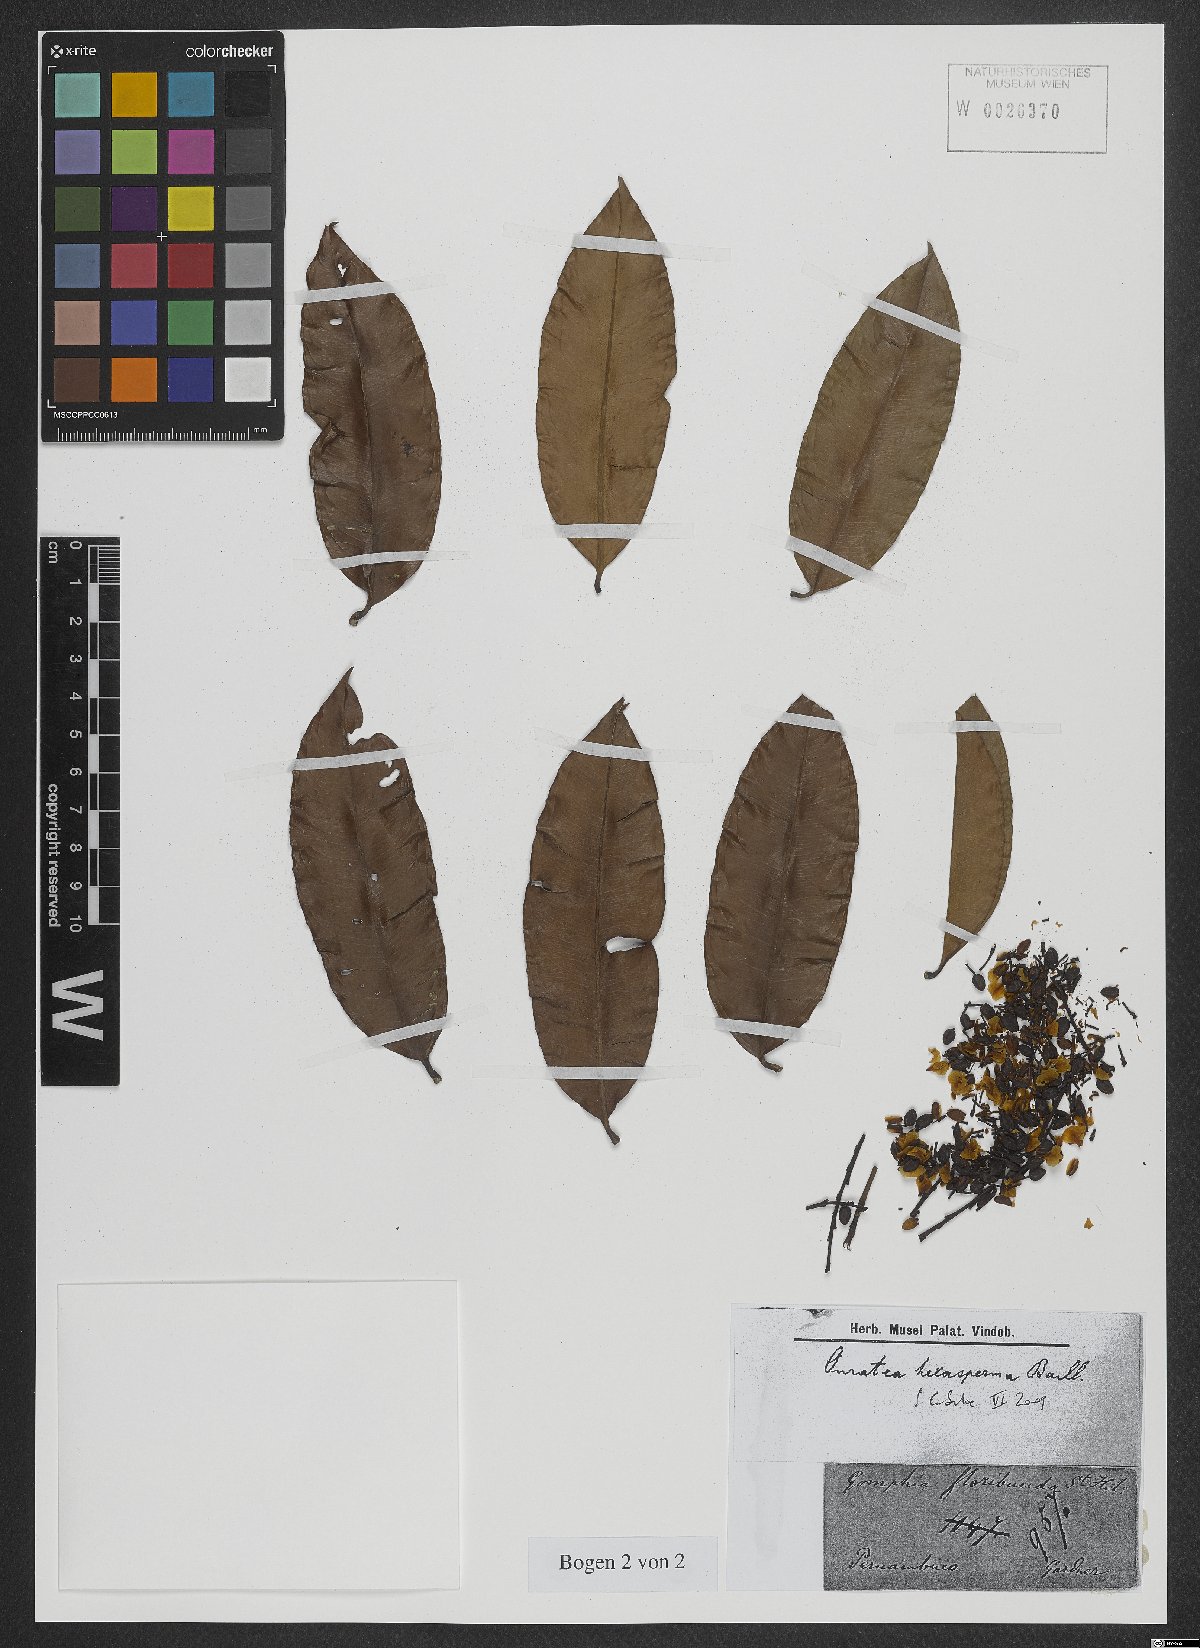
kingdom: Plantae
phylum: Tracheophyta
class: Magnoliopsida
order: Malpighiales
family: Ochnaceae
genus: Ouratea
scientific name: Ouratea hexasperma
